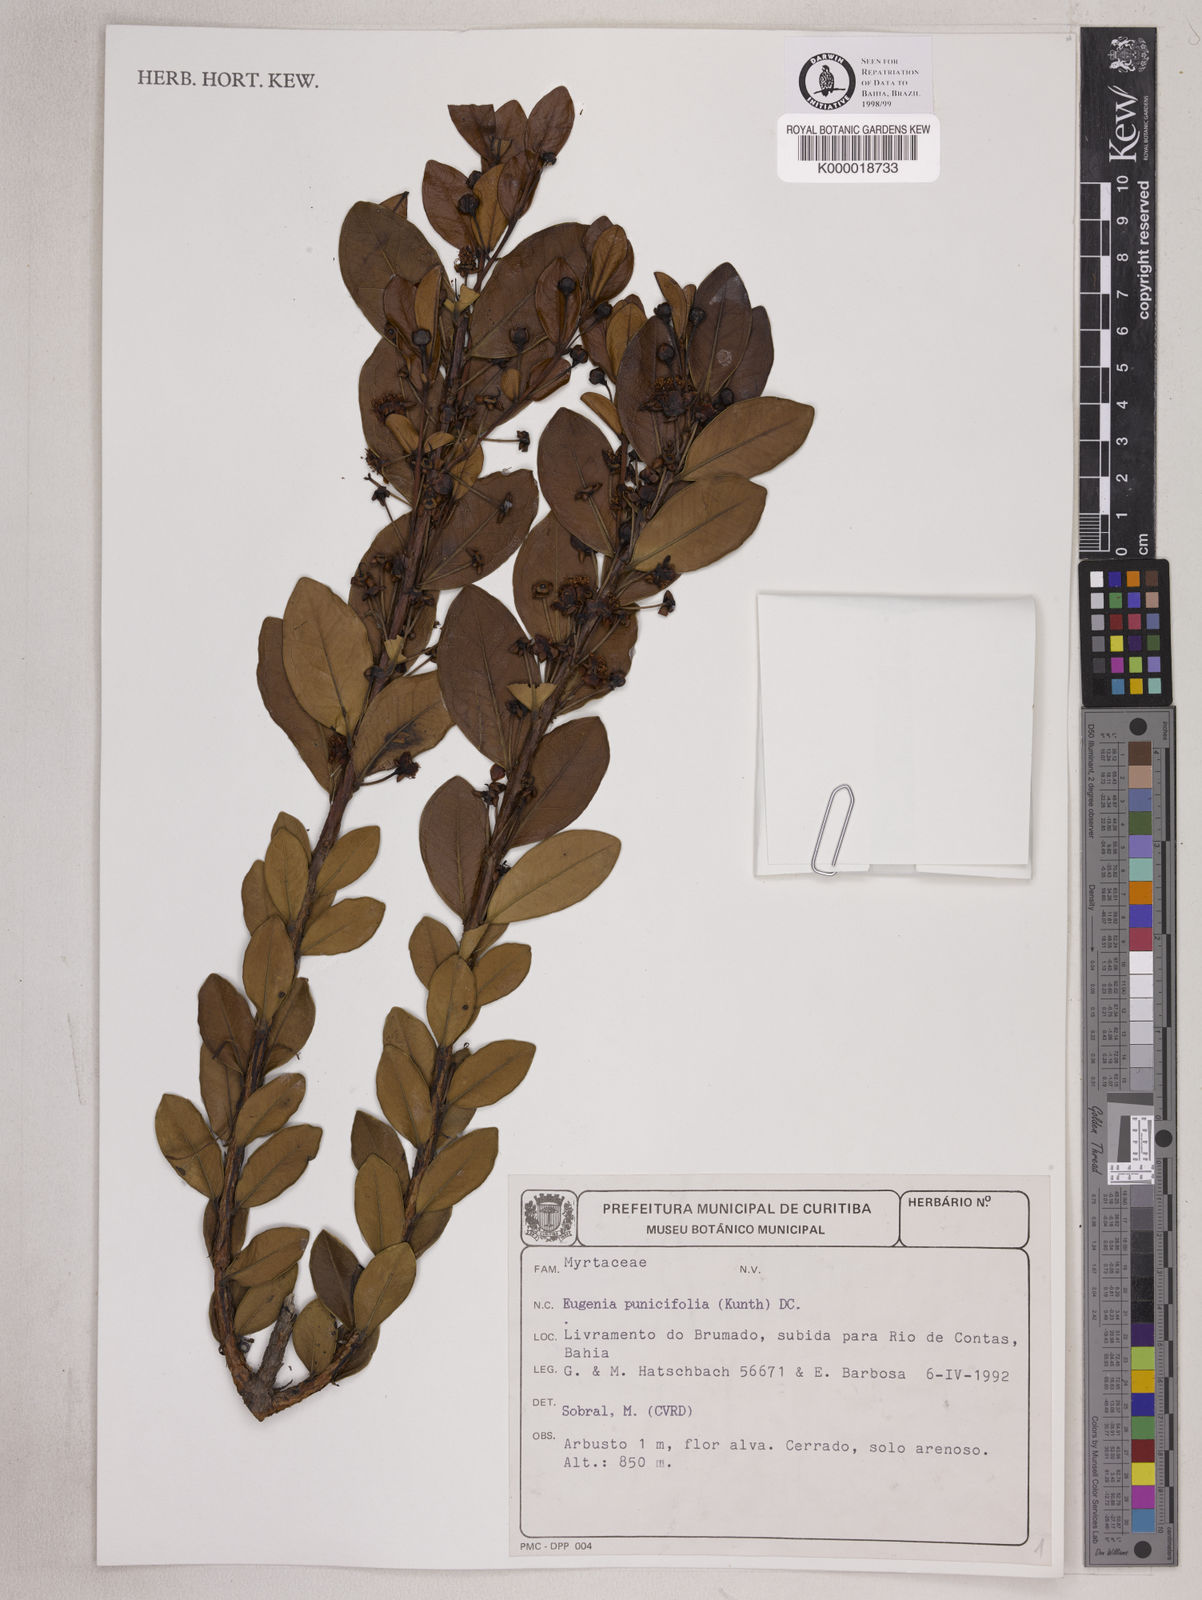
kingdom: Plantae
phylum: Tracheophyta
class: Magnoliopsida
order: Myrtales
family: Myrtaceae
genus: Eugenia
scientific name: Eugenia punicifolia
